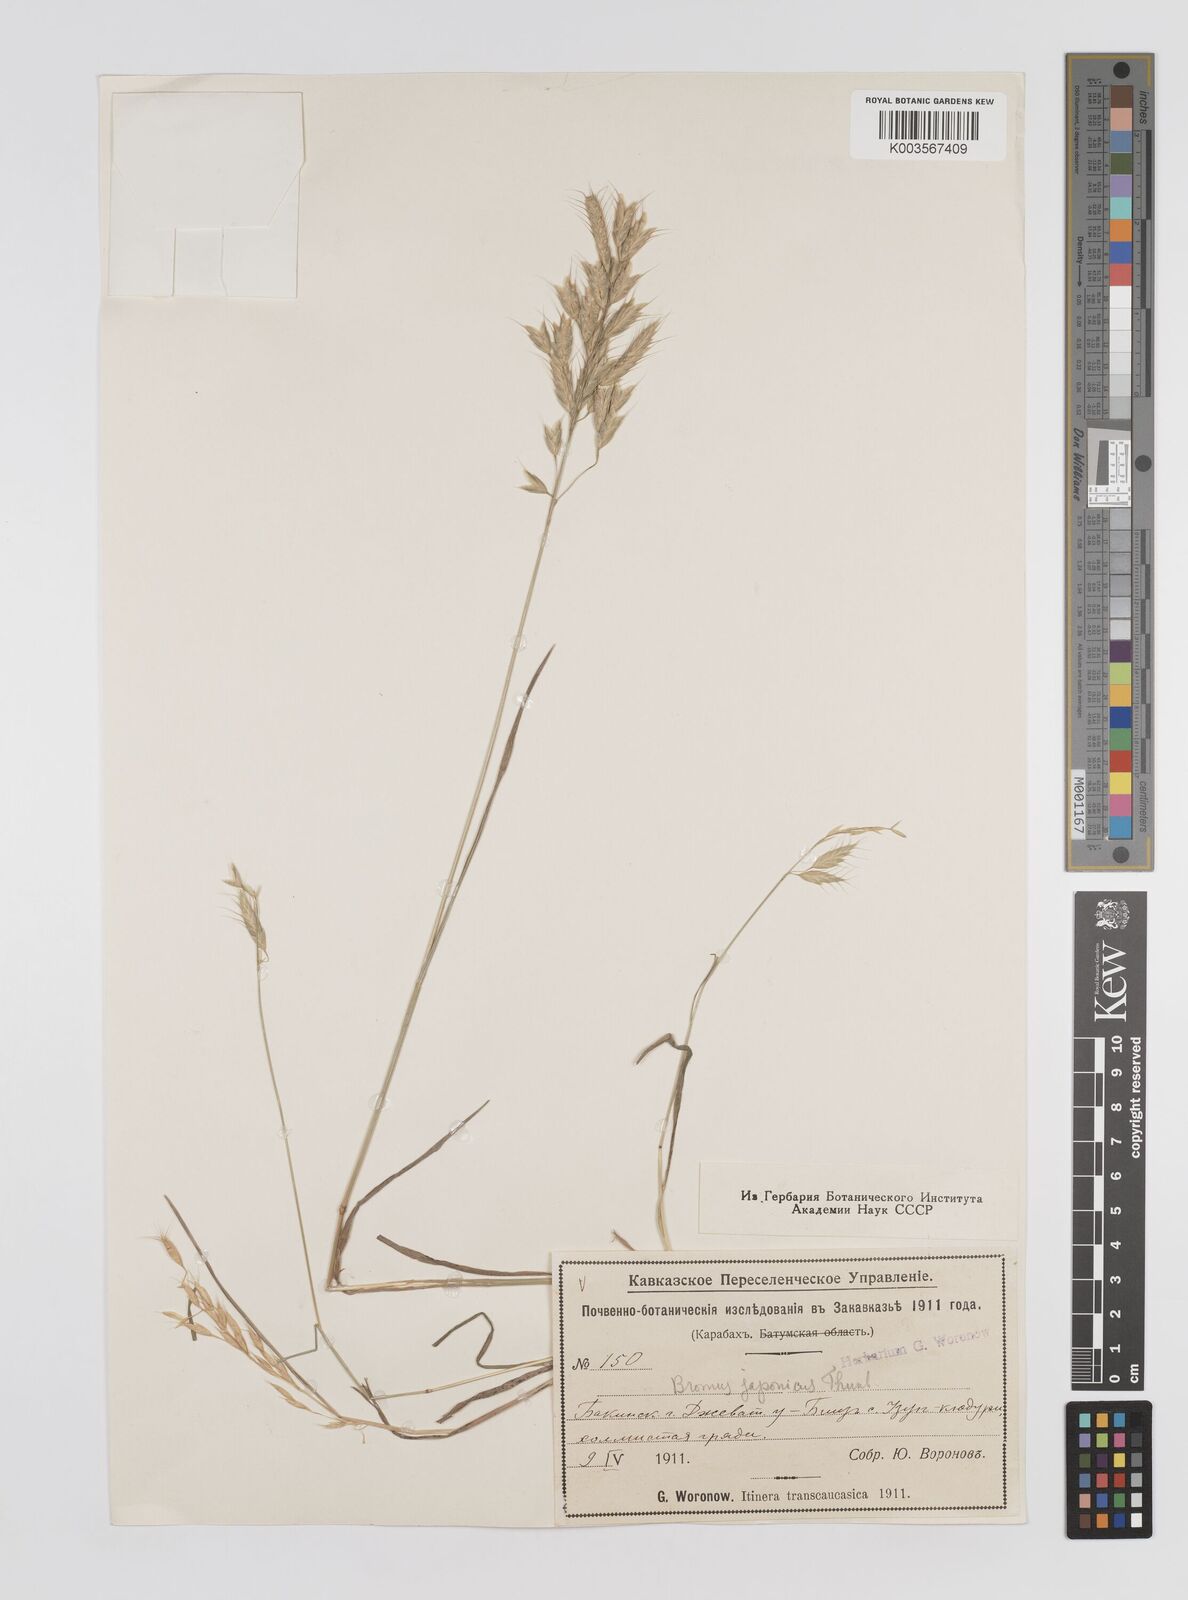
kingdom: Plantae
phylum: Tracheophyta
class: Liliopsida
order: Poales
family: Poaceae
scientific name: Poaceae
